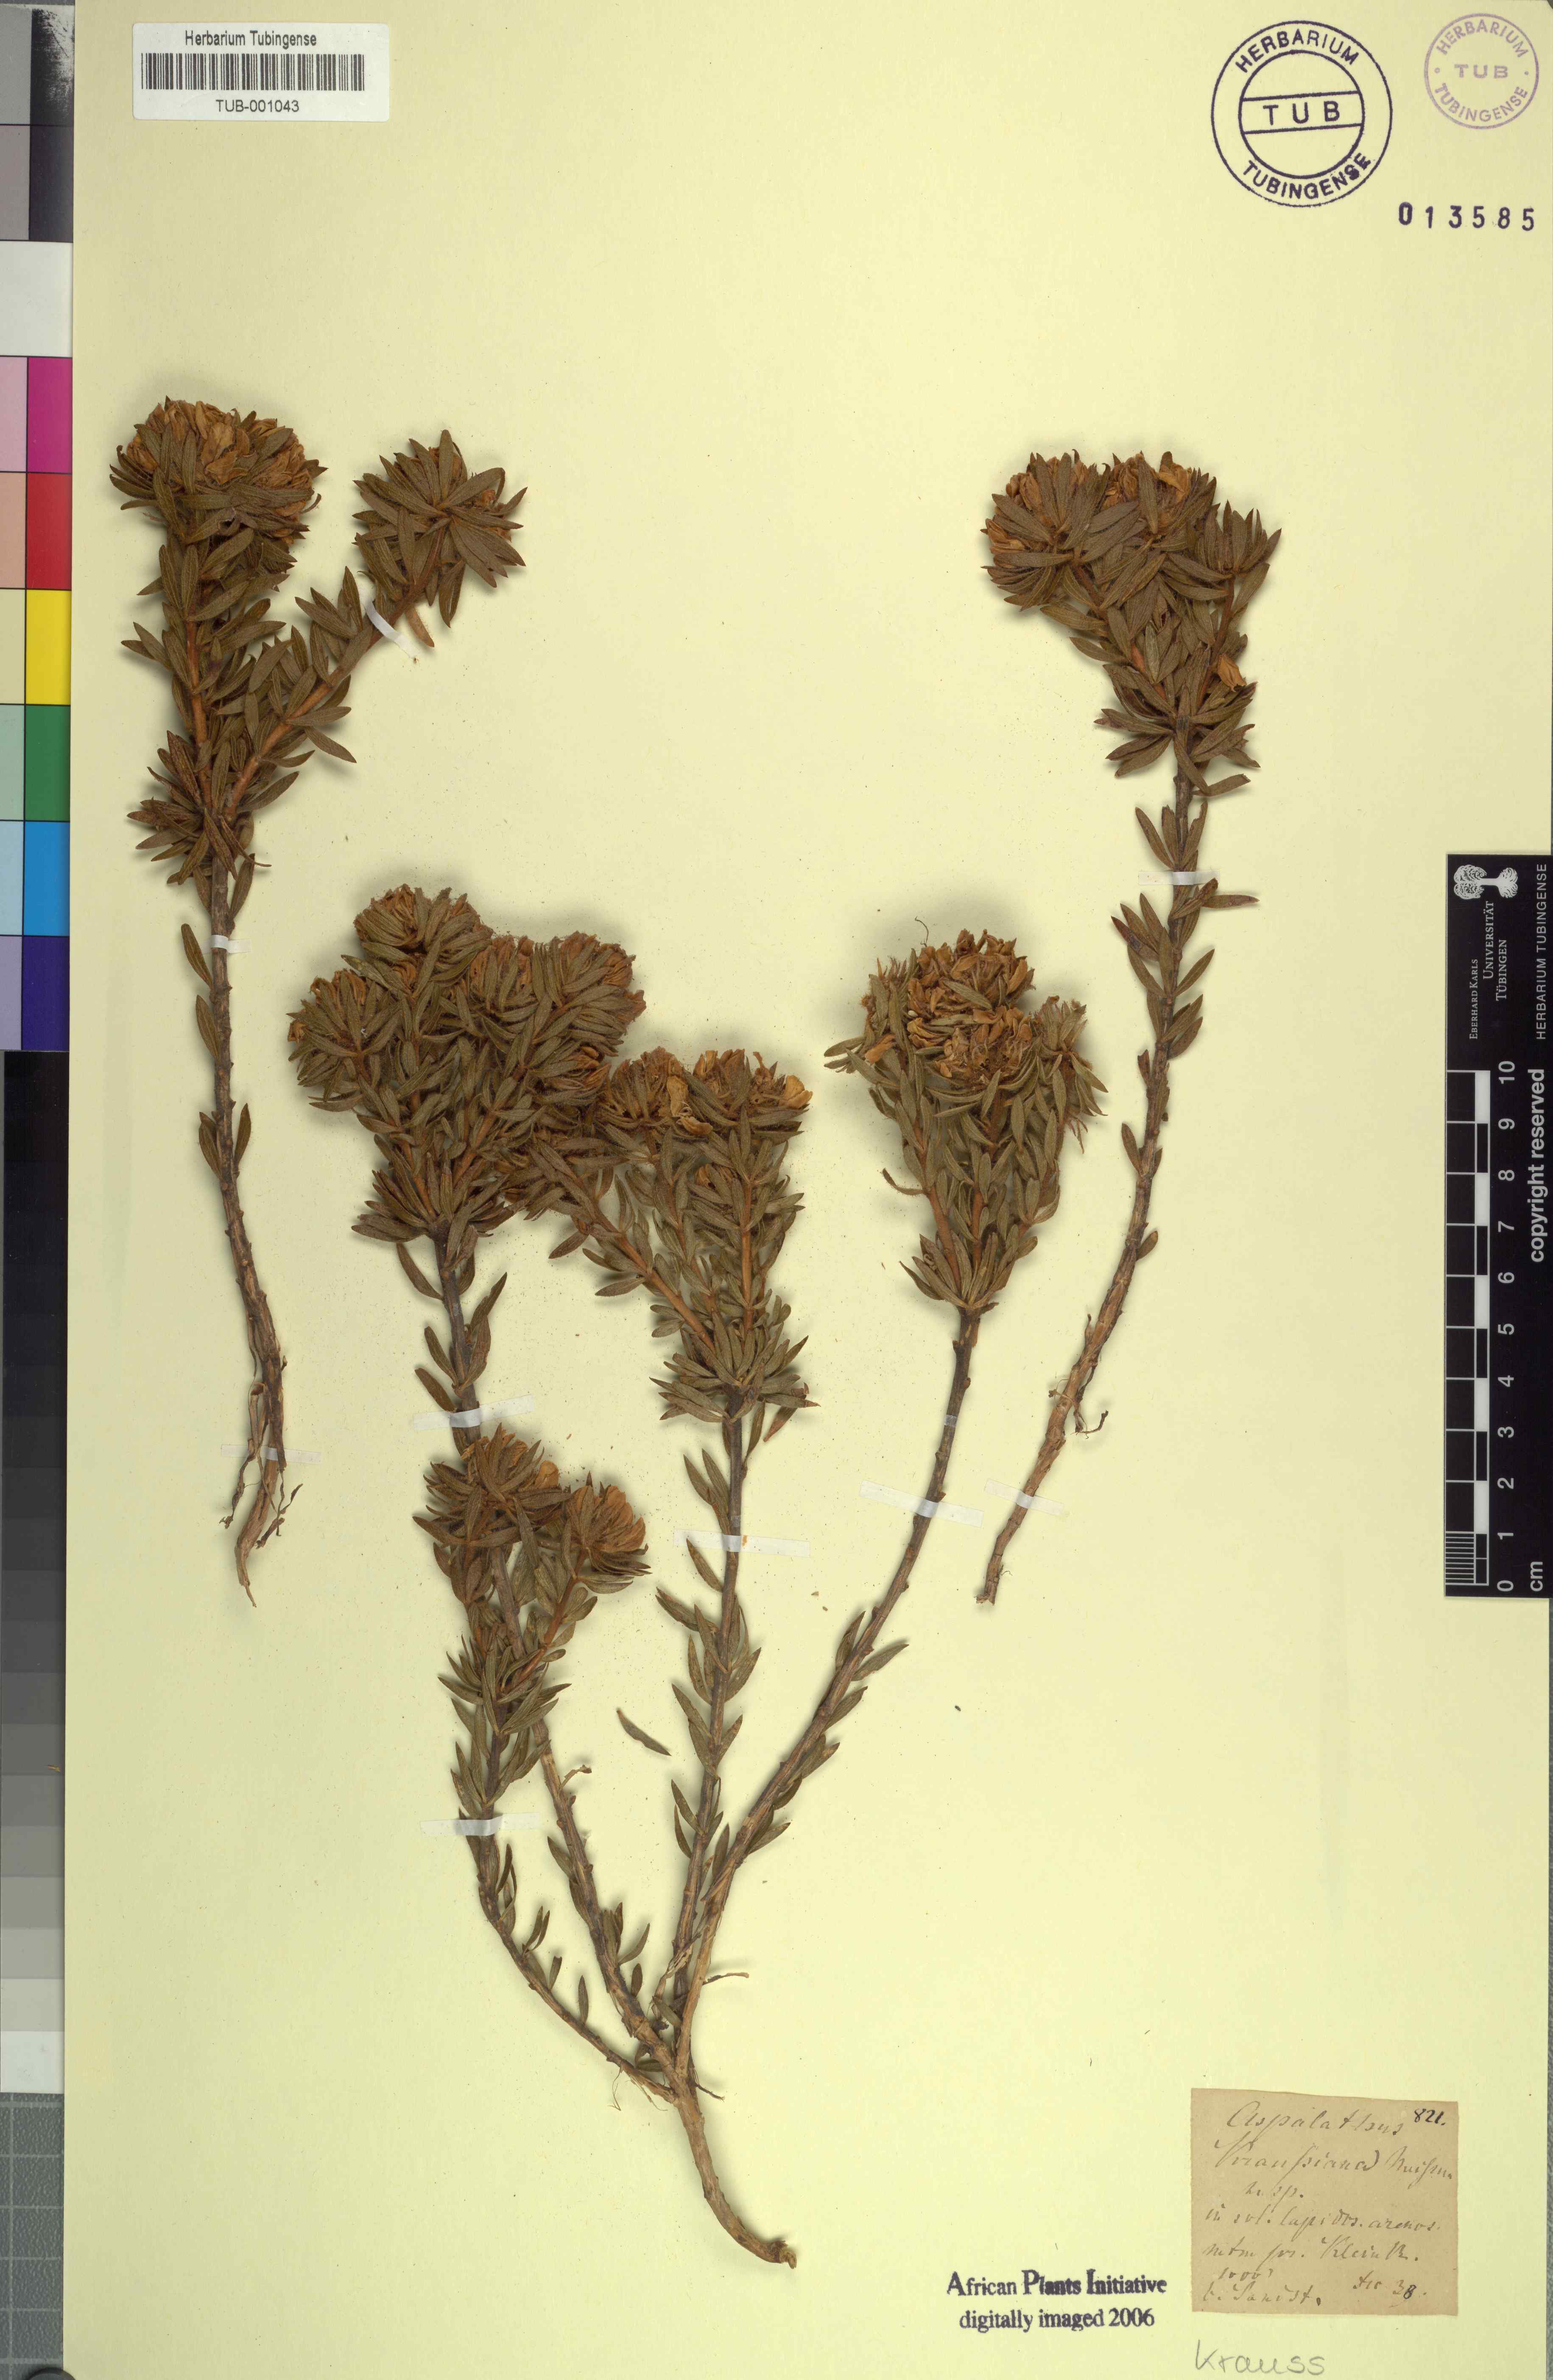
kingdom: Plantae
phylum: Tracheophyta
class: Magnoliopsida
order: Fabales
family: Fabaceae
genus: Aspalathus
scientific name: Aspalathus lotoides
